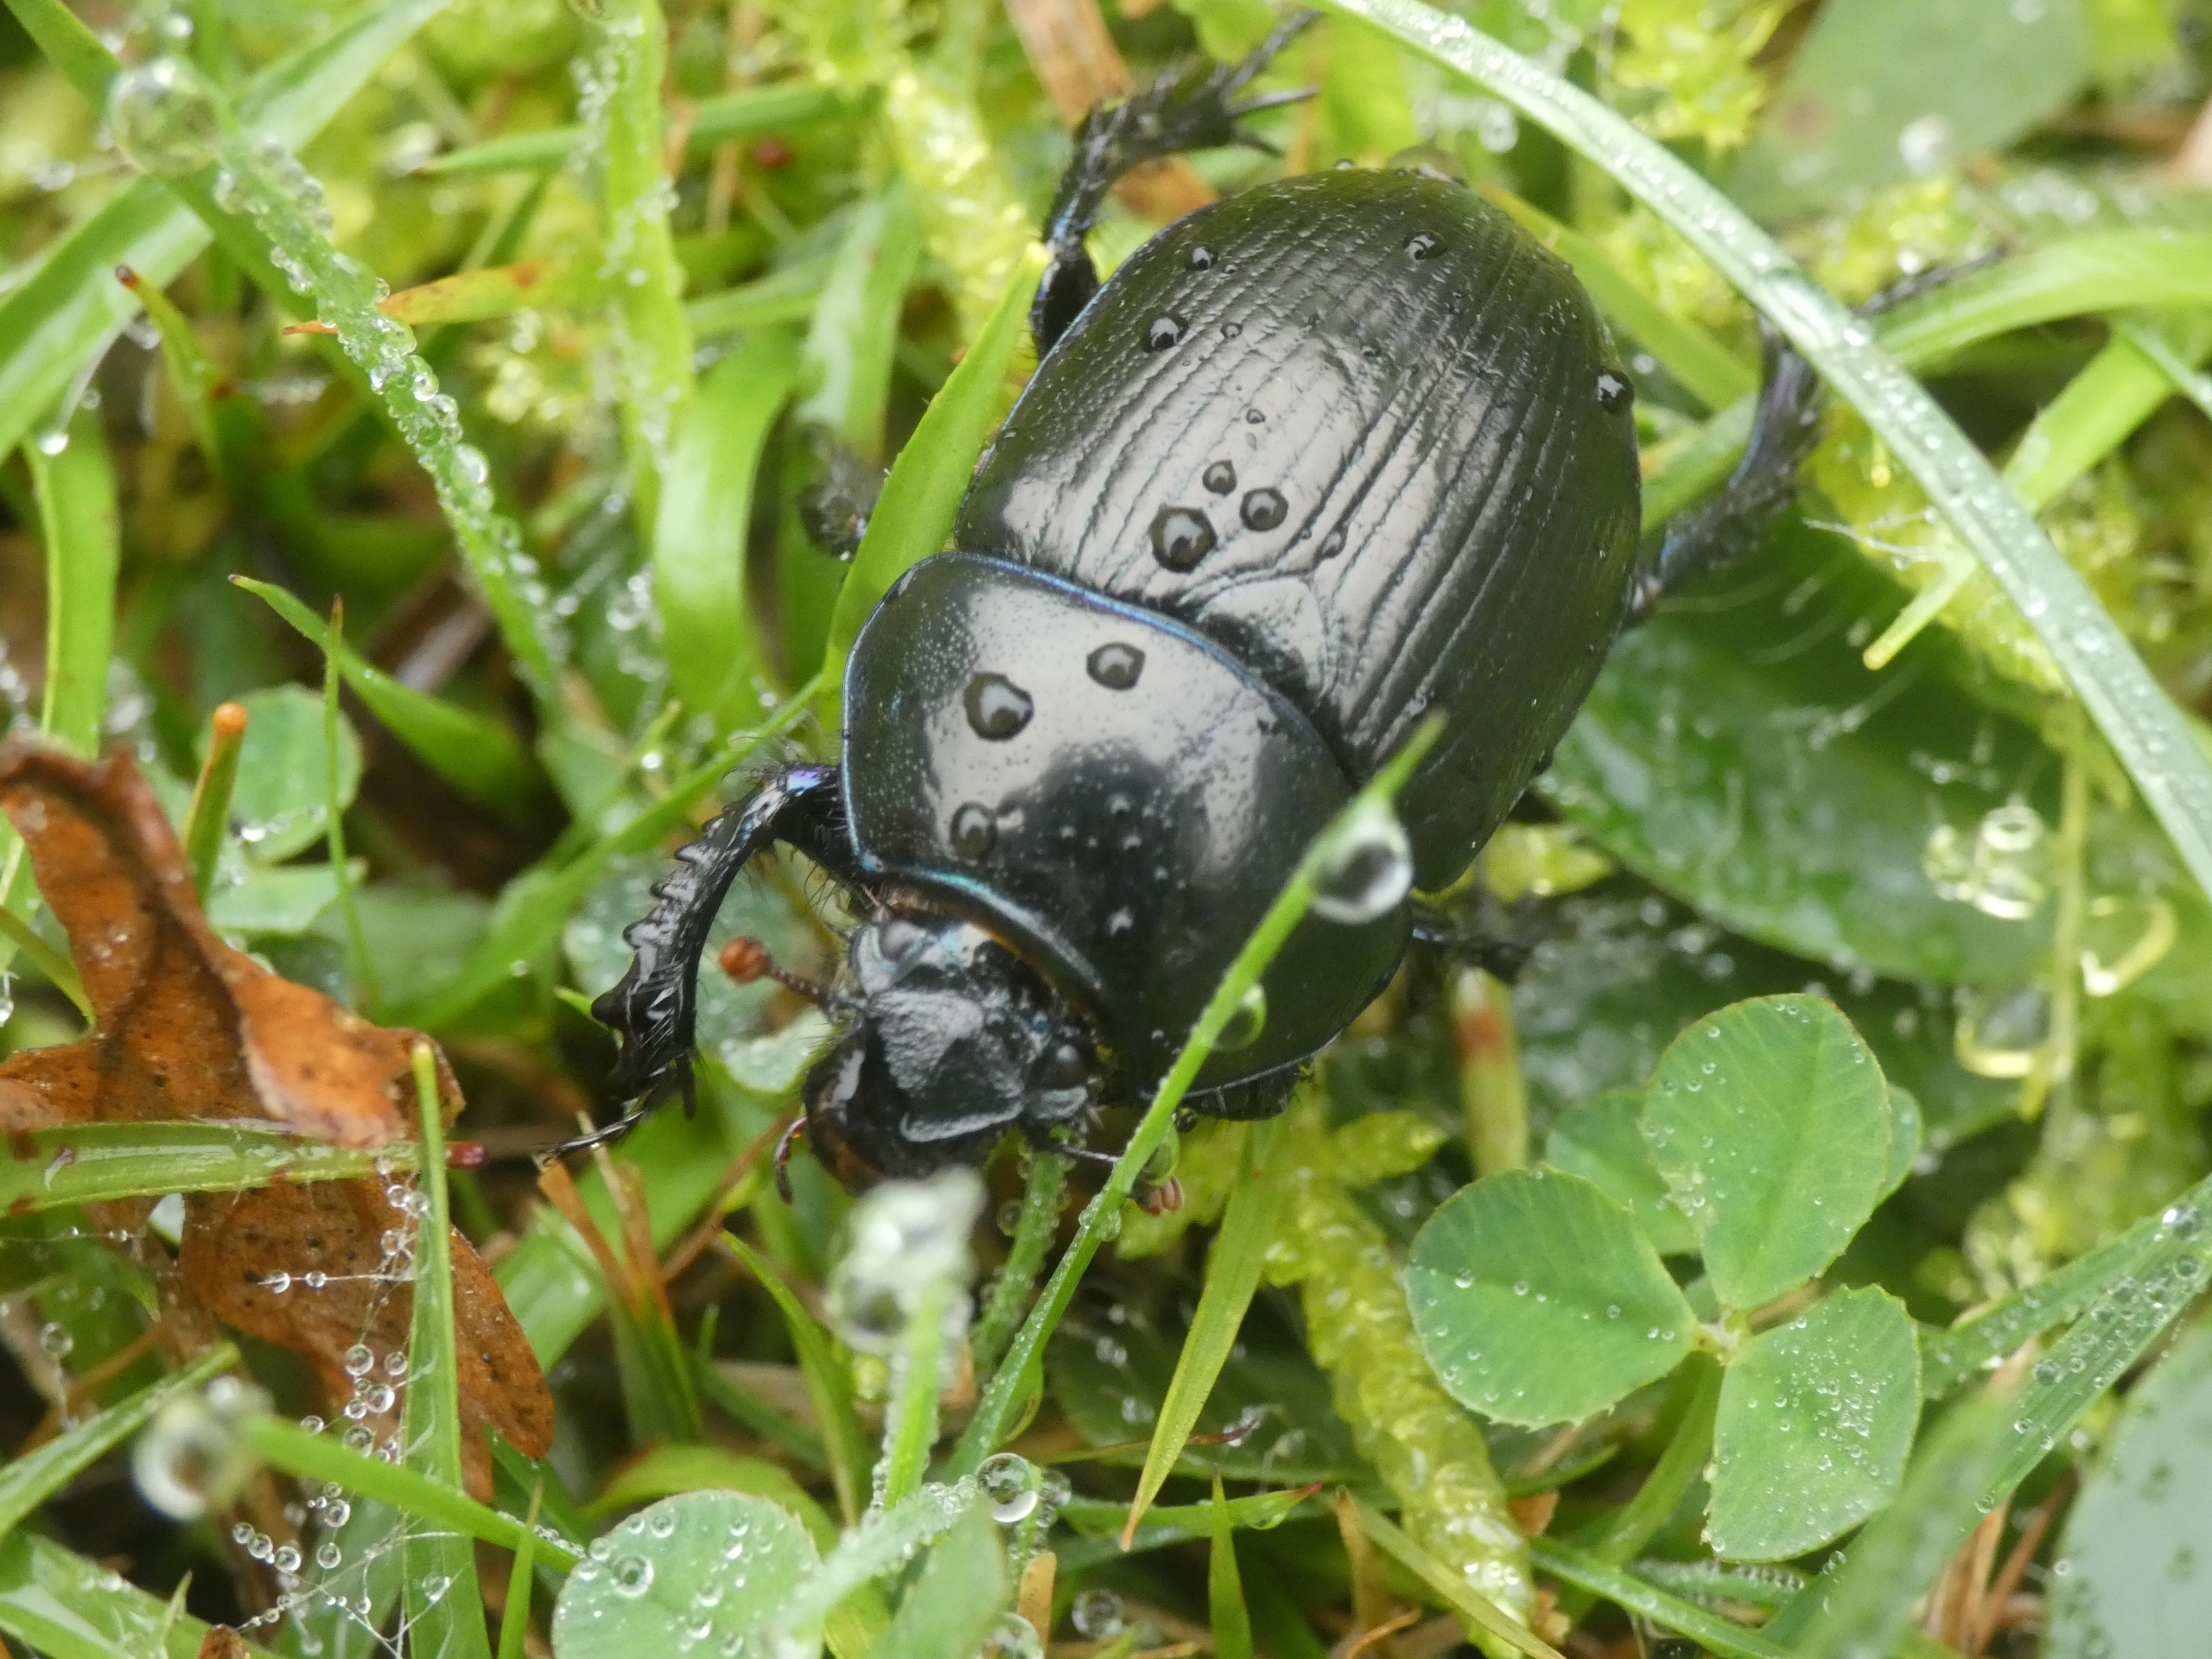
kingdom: Animalia
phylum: Arthropoda
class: Insecta
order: Coleoptera
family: Geotrupidae
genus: Anoplotrupes
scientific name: Anoplotrupes stercorosus
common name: Skovskarnbasse
